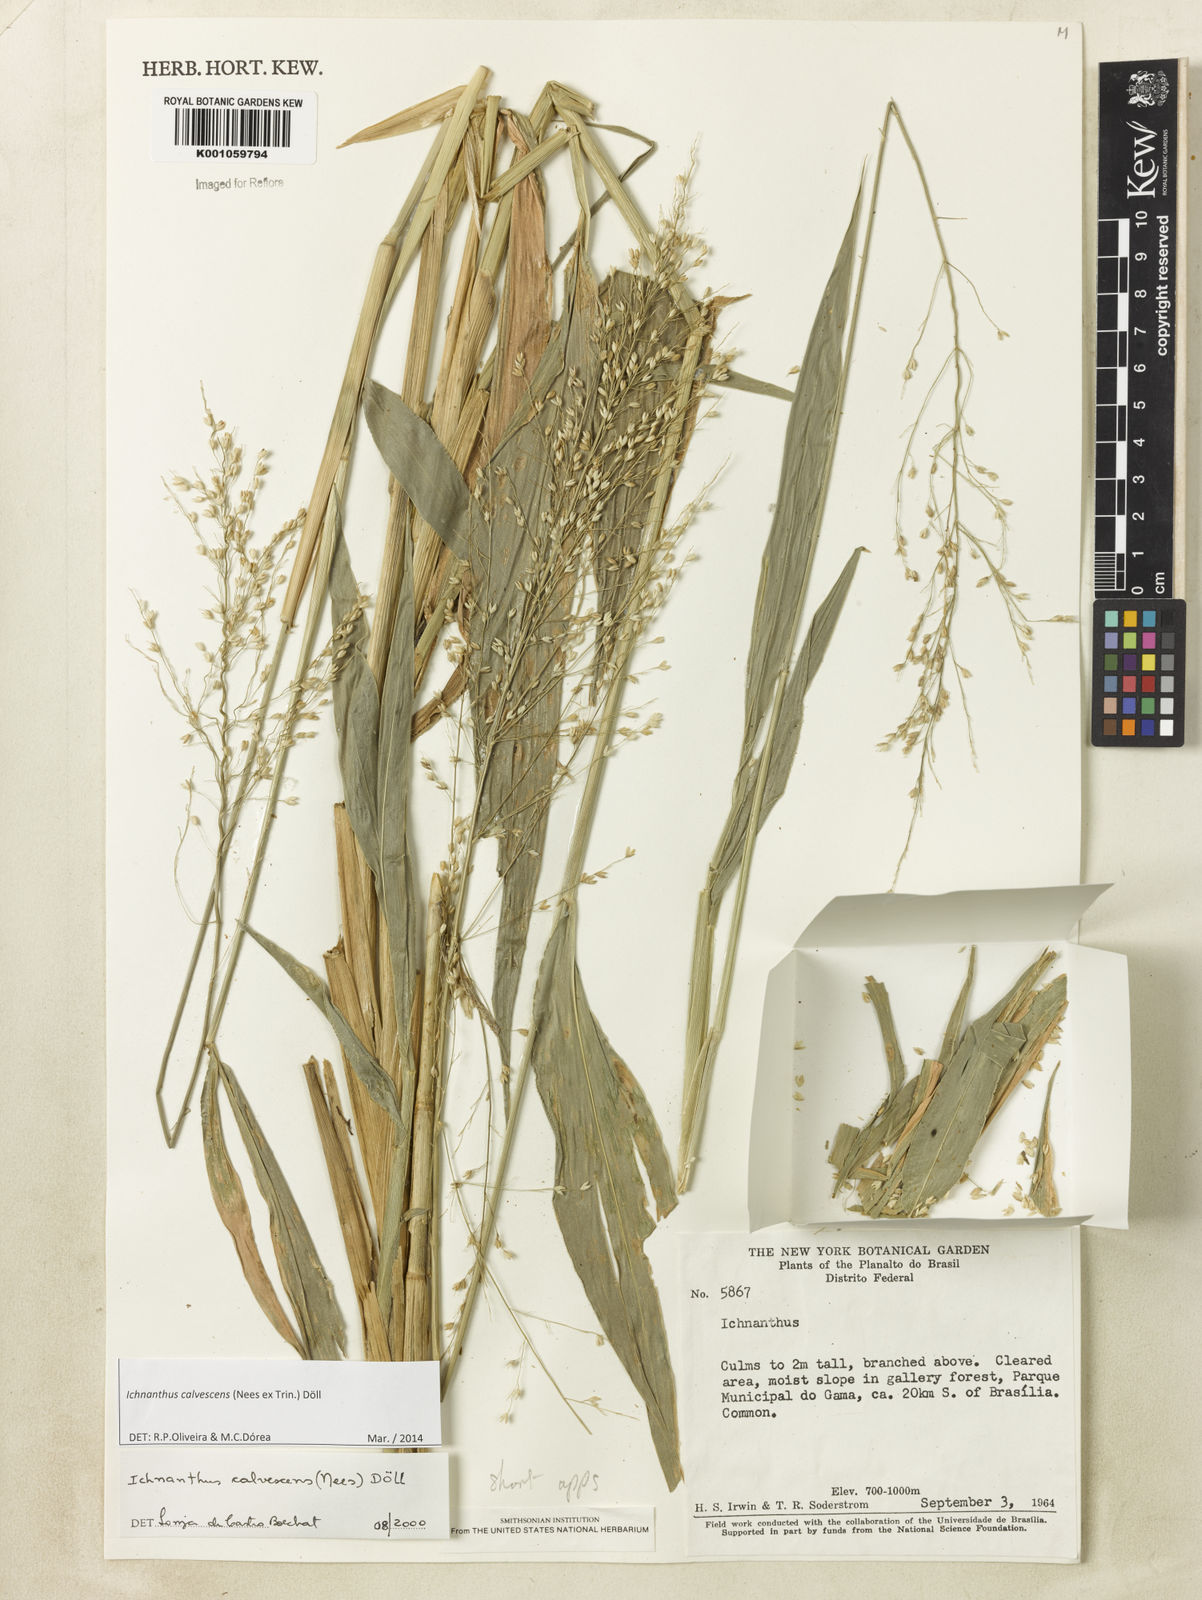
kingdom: Plantae
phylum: Tracheophyta
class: Liliopsida
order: Poales
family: Poaceae
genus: Ichnanthus
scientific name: Ichnanthus
